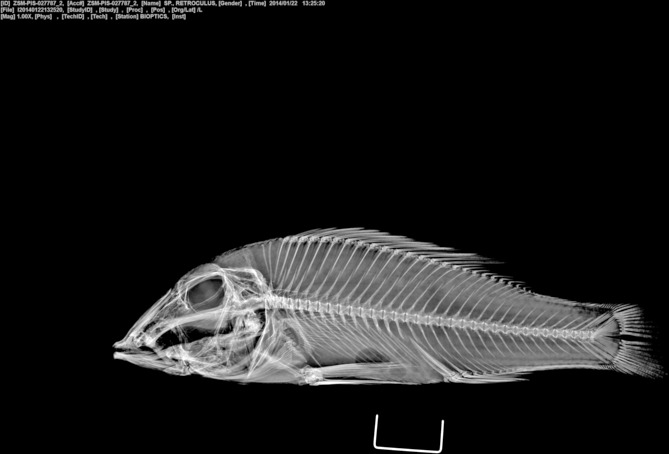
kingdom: Animalia
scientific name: Animalia
